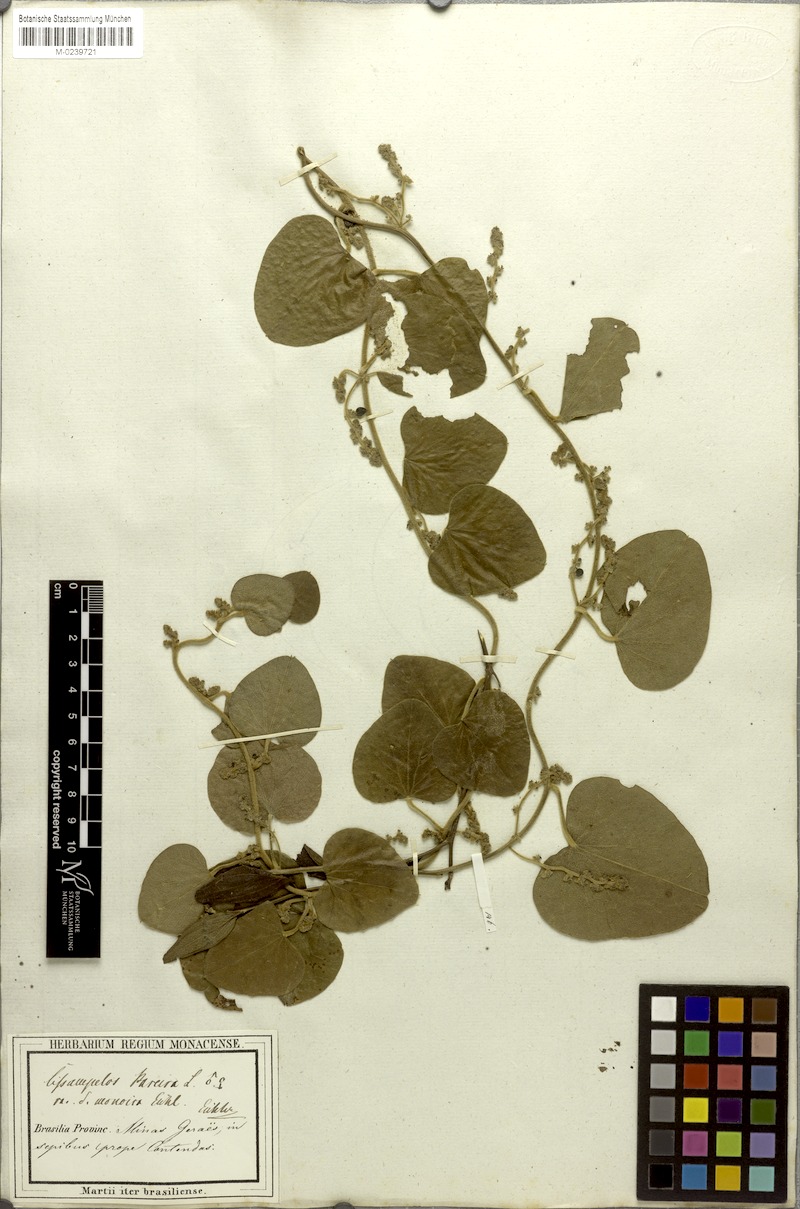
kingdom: Plantae
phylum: Tracheophyta
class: Magnoliopsida
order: Ranunculales
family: Menispermaceae
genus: Cissampelos
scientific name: Cissampelos pareira
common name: Velvetleaf
